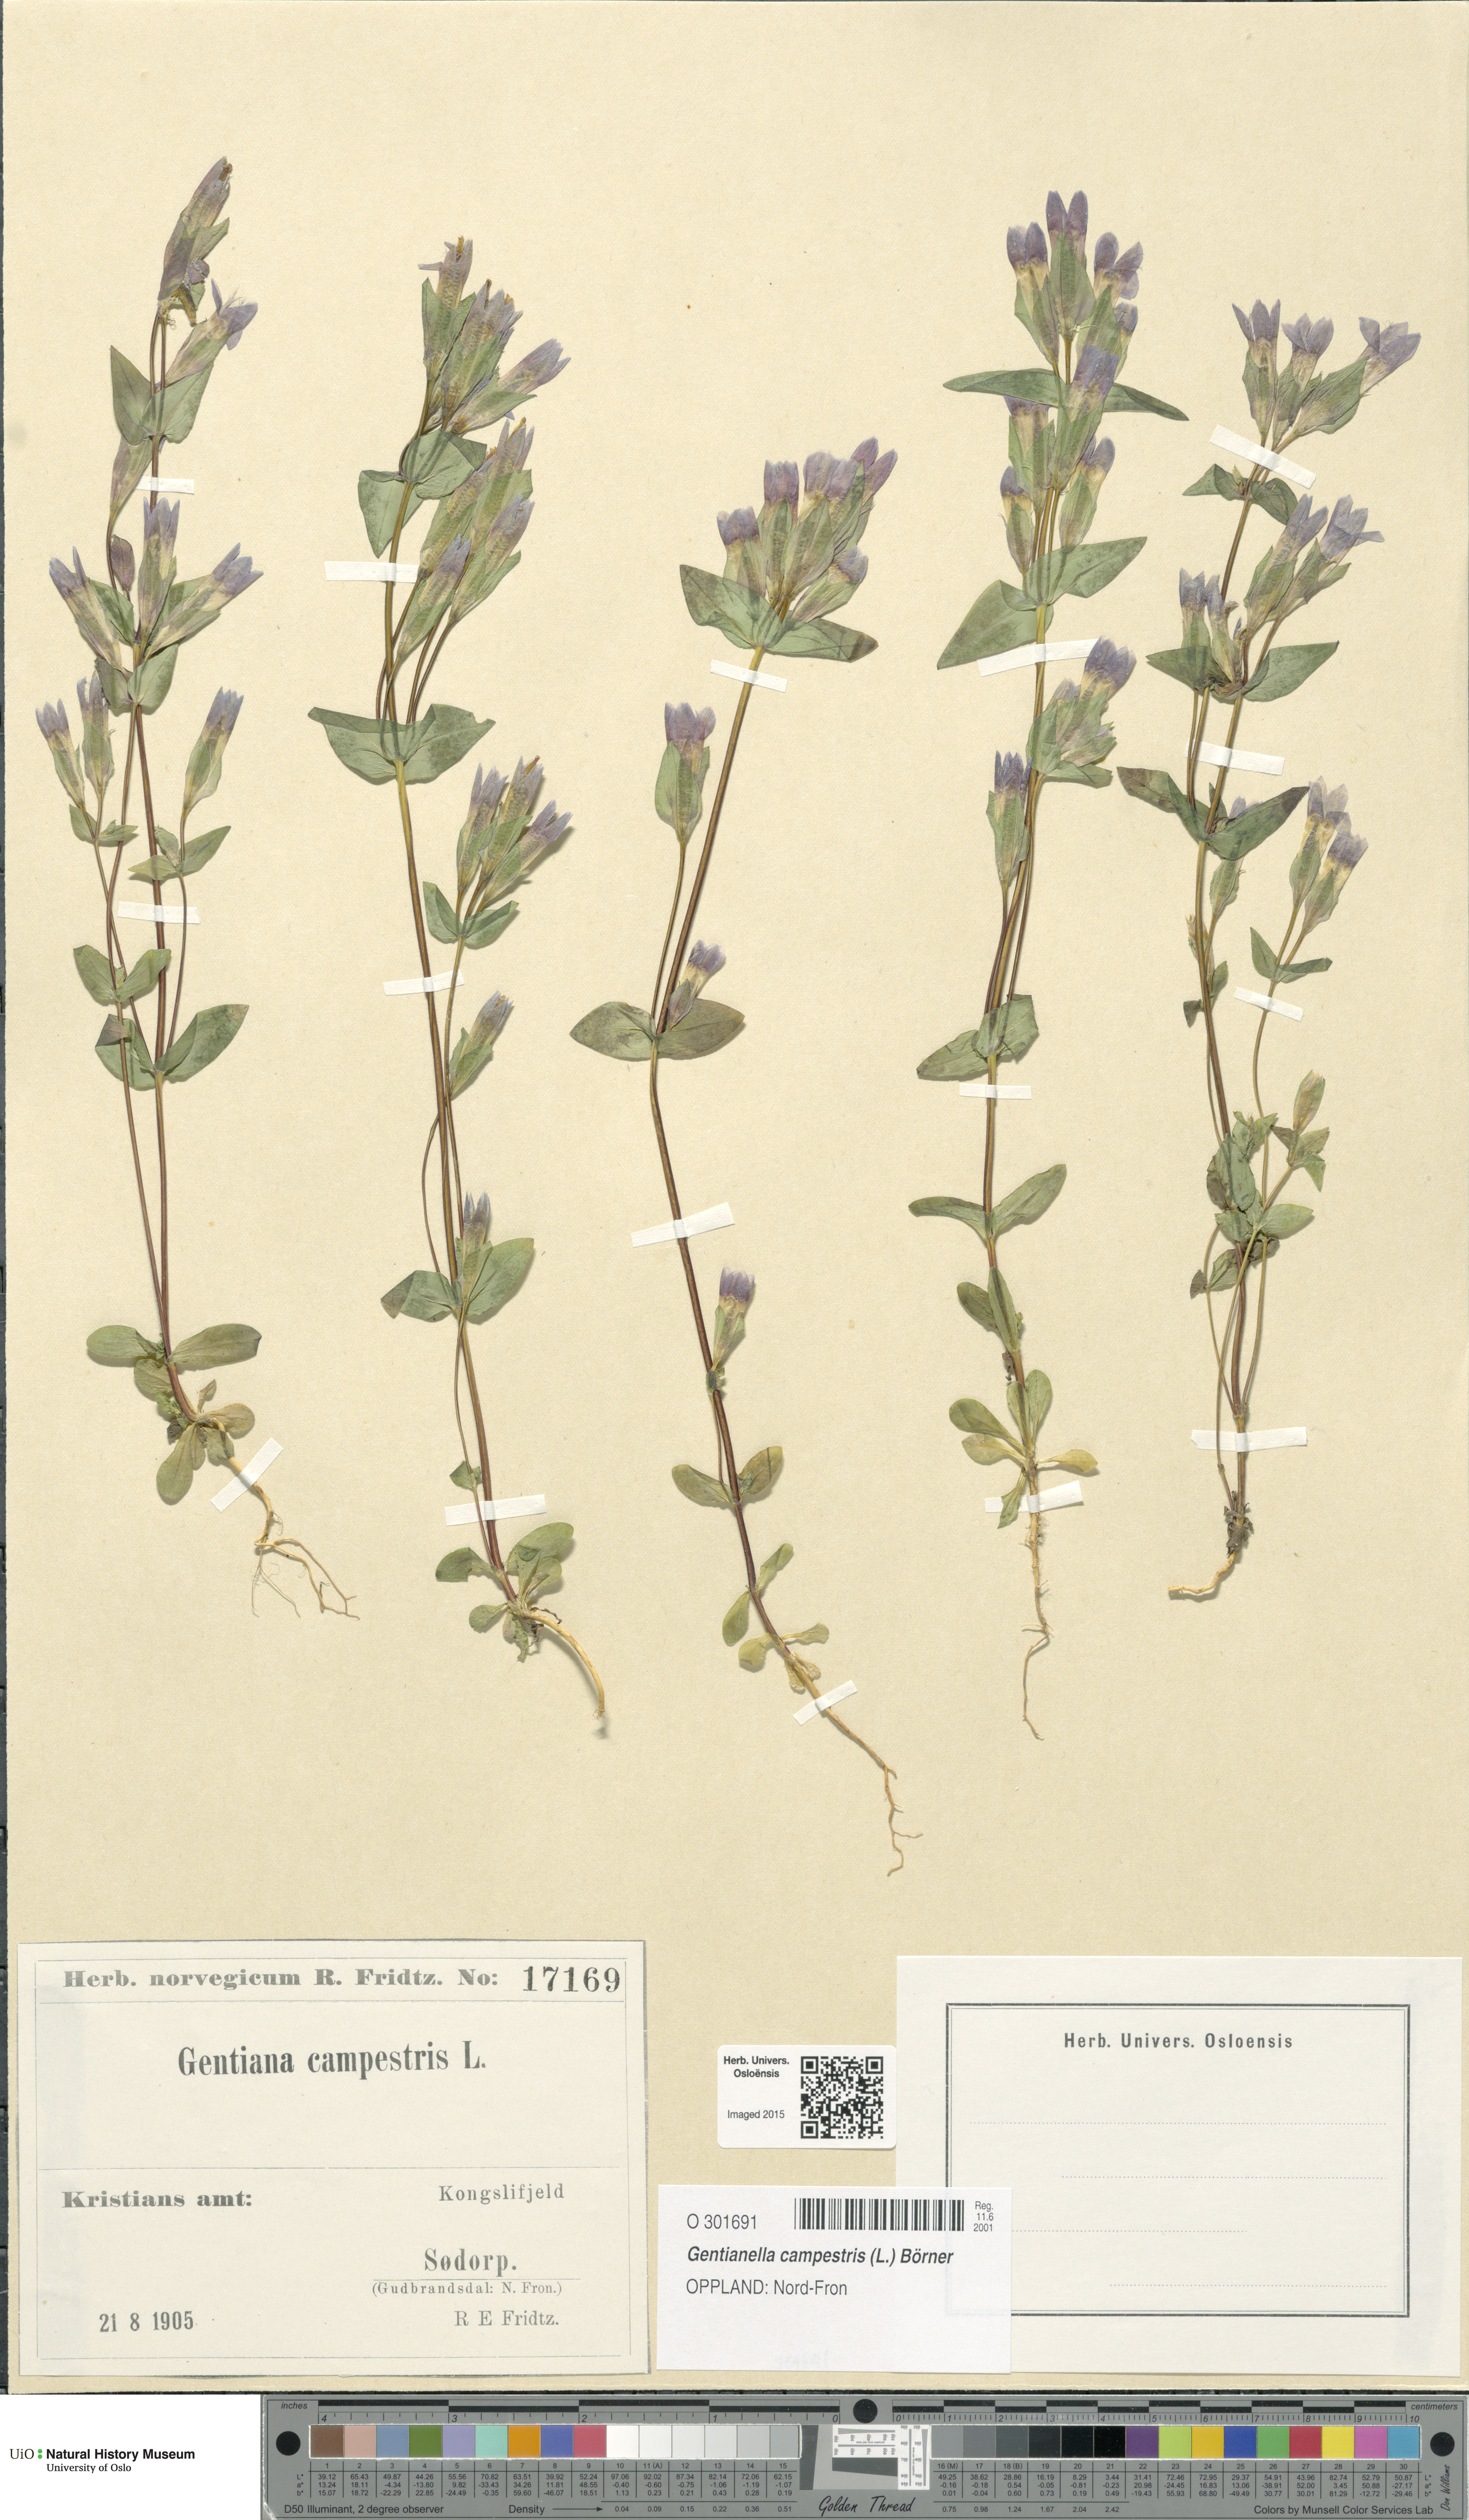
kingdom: Plantae
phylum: Tracheophyta
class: Magnoliopsida
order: Gentianales
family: Gentianaceae
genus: Gentianella
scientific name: Gentianella campestris
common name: Field gentian
